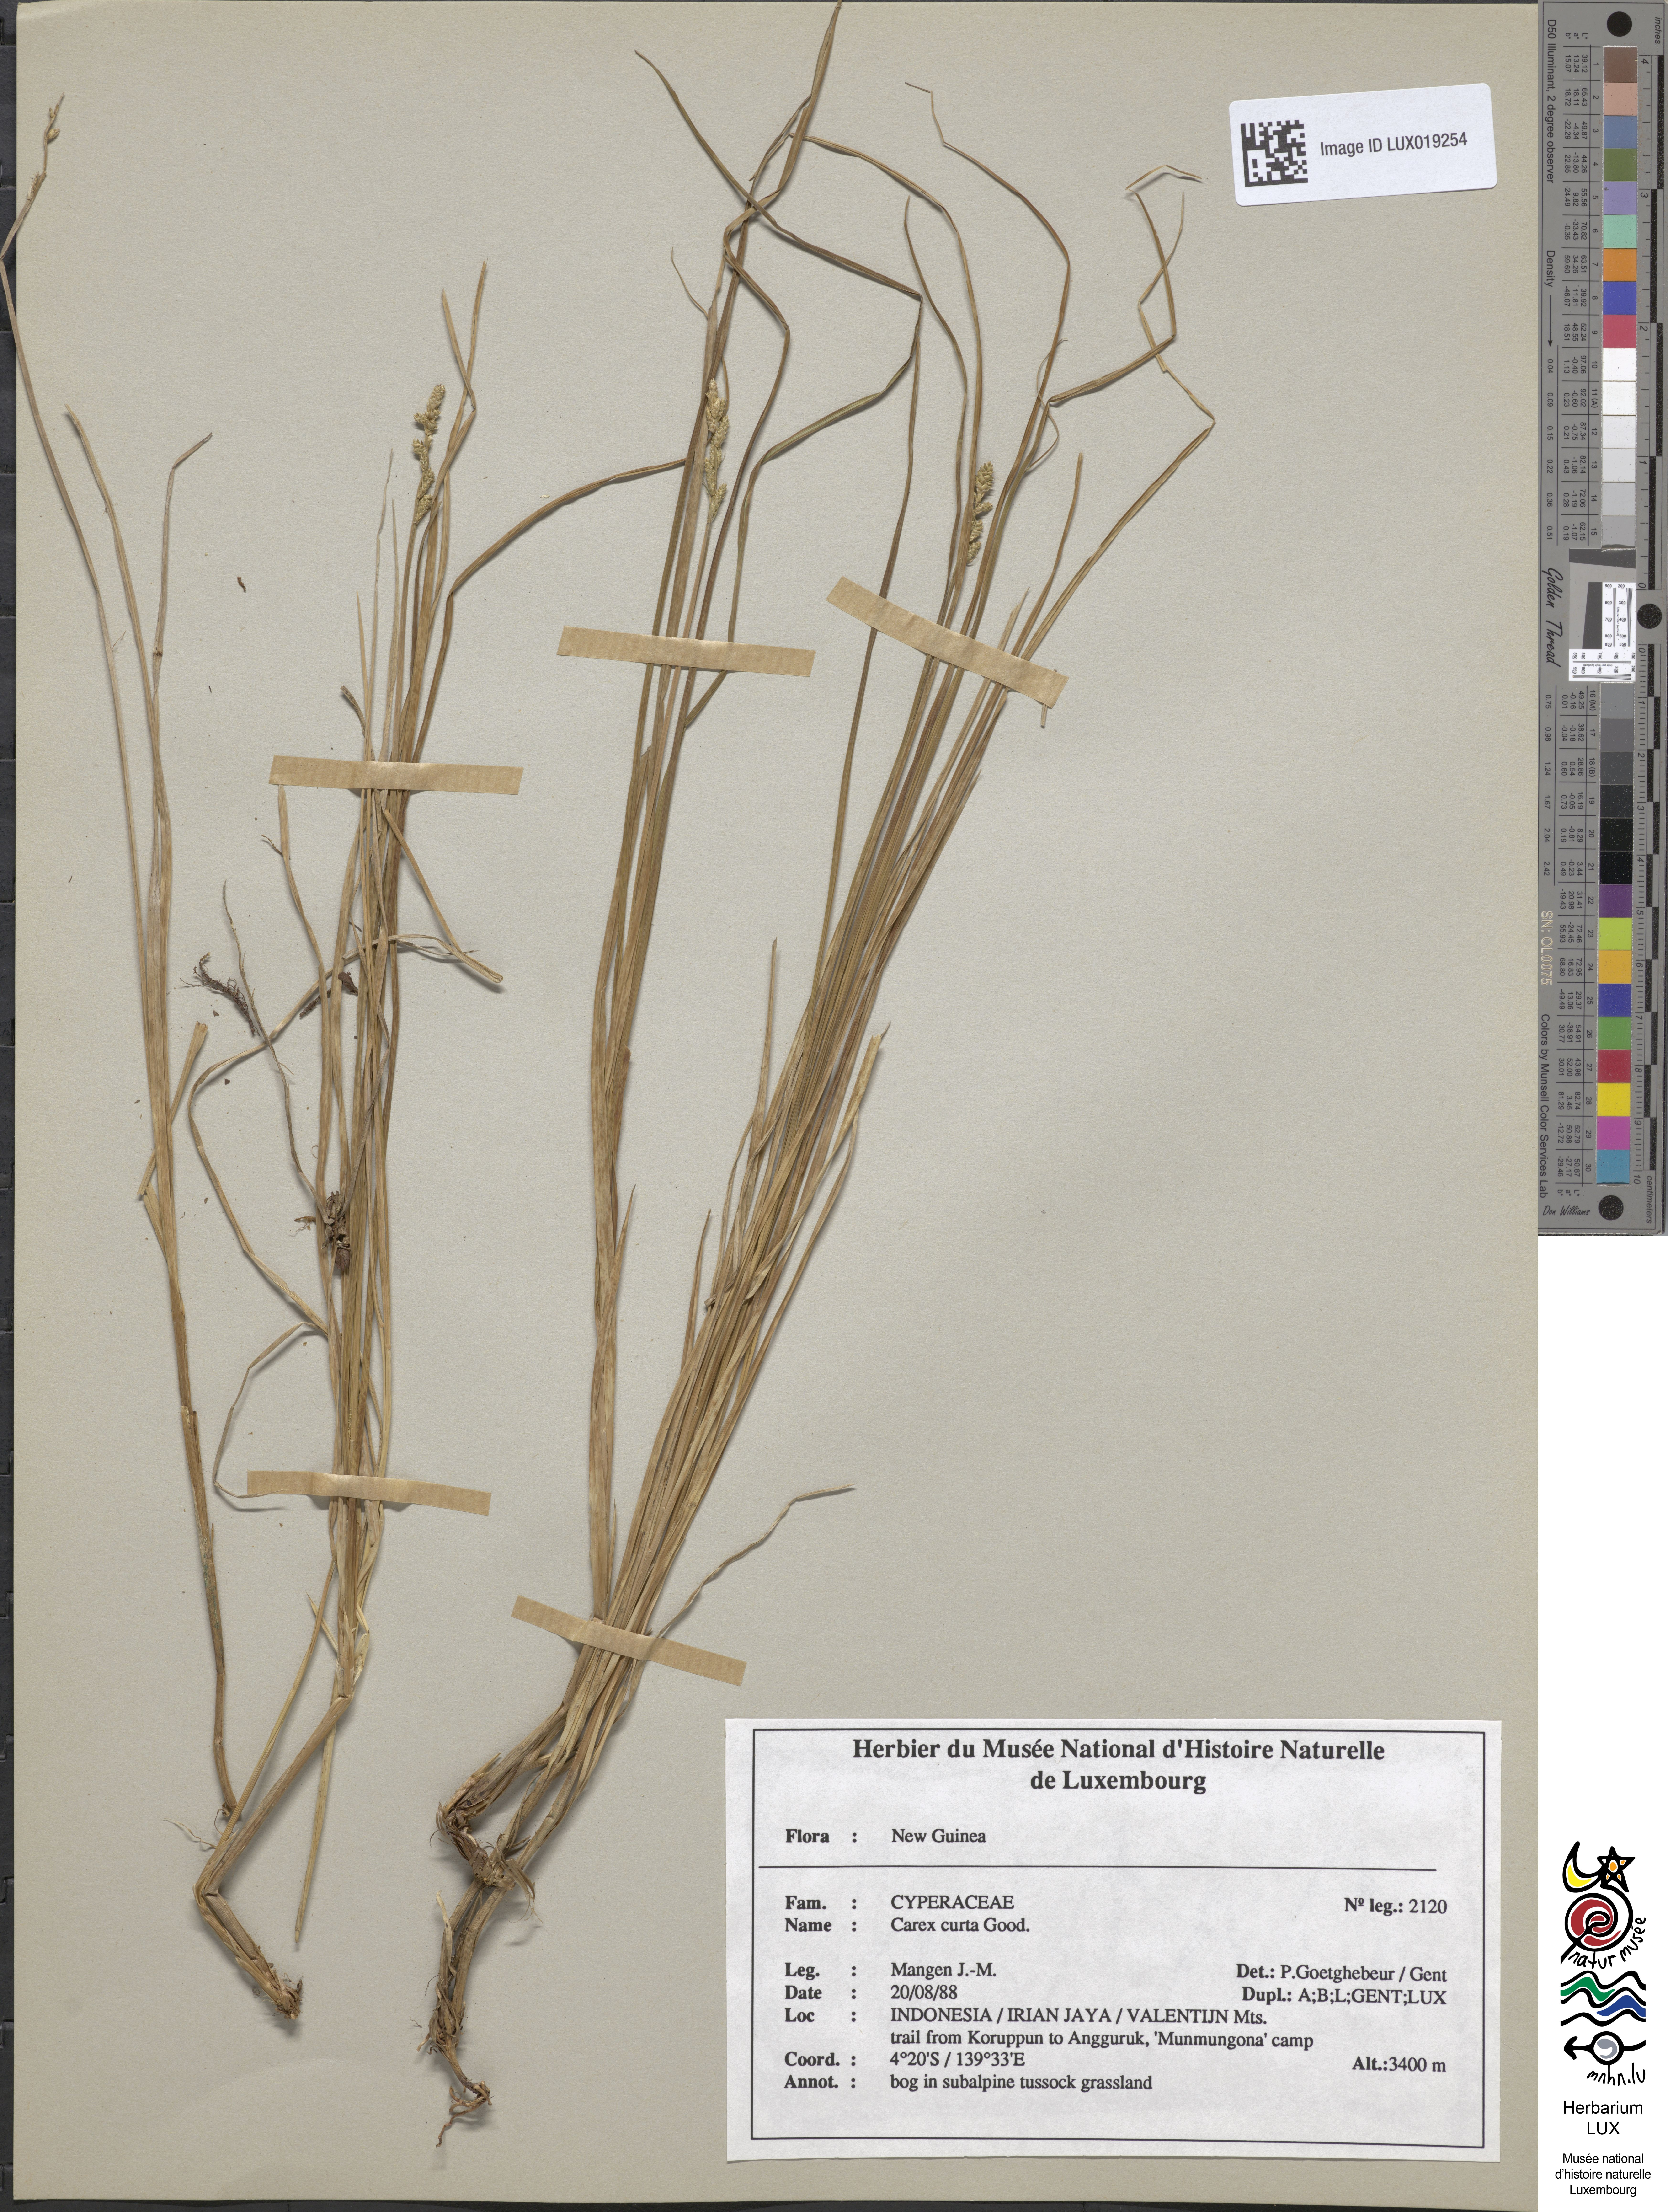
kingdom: Plantae
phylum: Tracheophyta
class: Liliopsida
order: Poales
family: Cyperaceae
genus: Carex
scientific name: Carex curta
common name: White sedge
